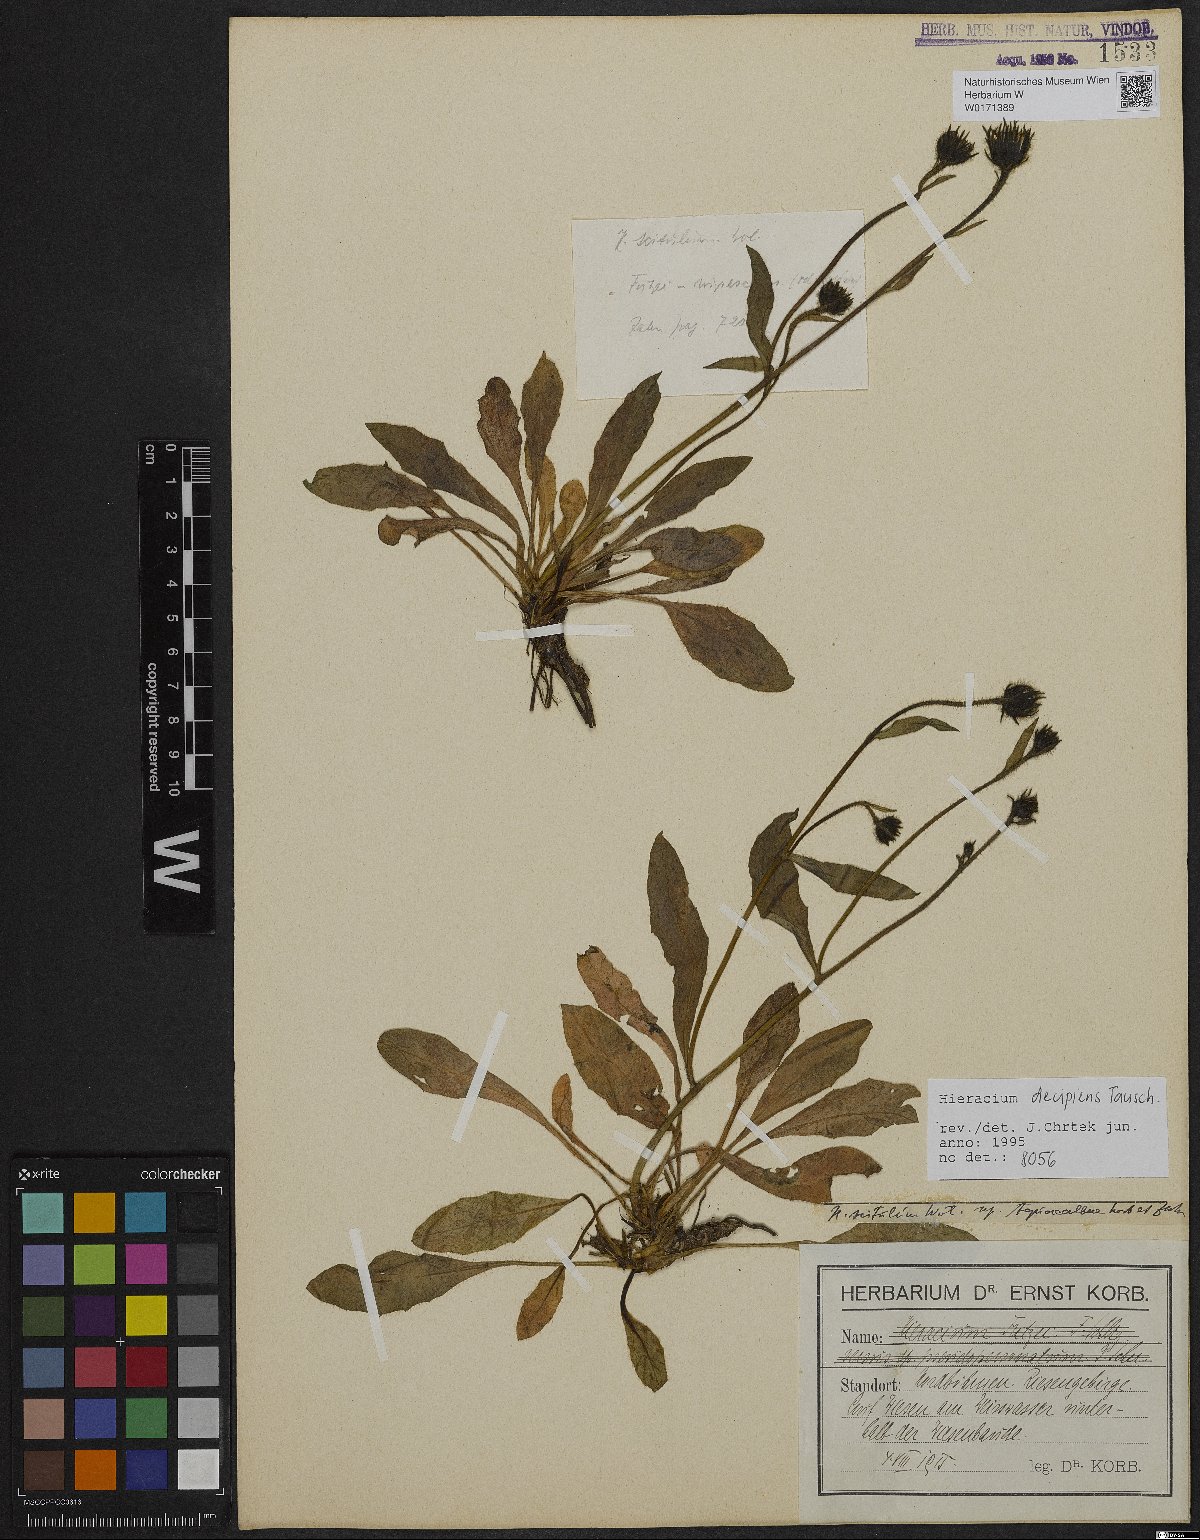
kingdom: Plantae
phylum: Tracheophyta
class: Magnoliopsida
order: Asterales
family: Asteraceae
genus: Hieracium
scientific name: Hieracium nigrescens
